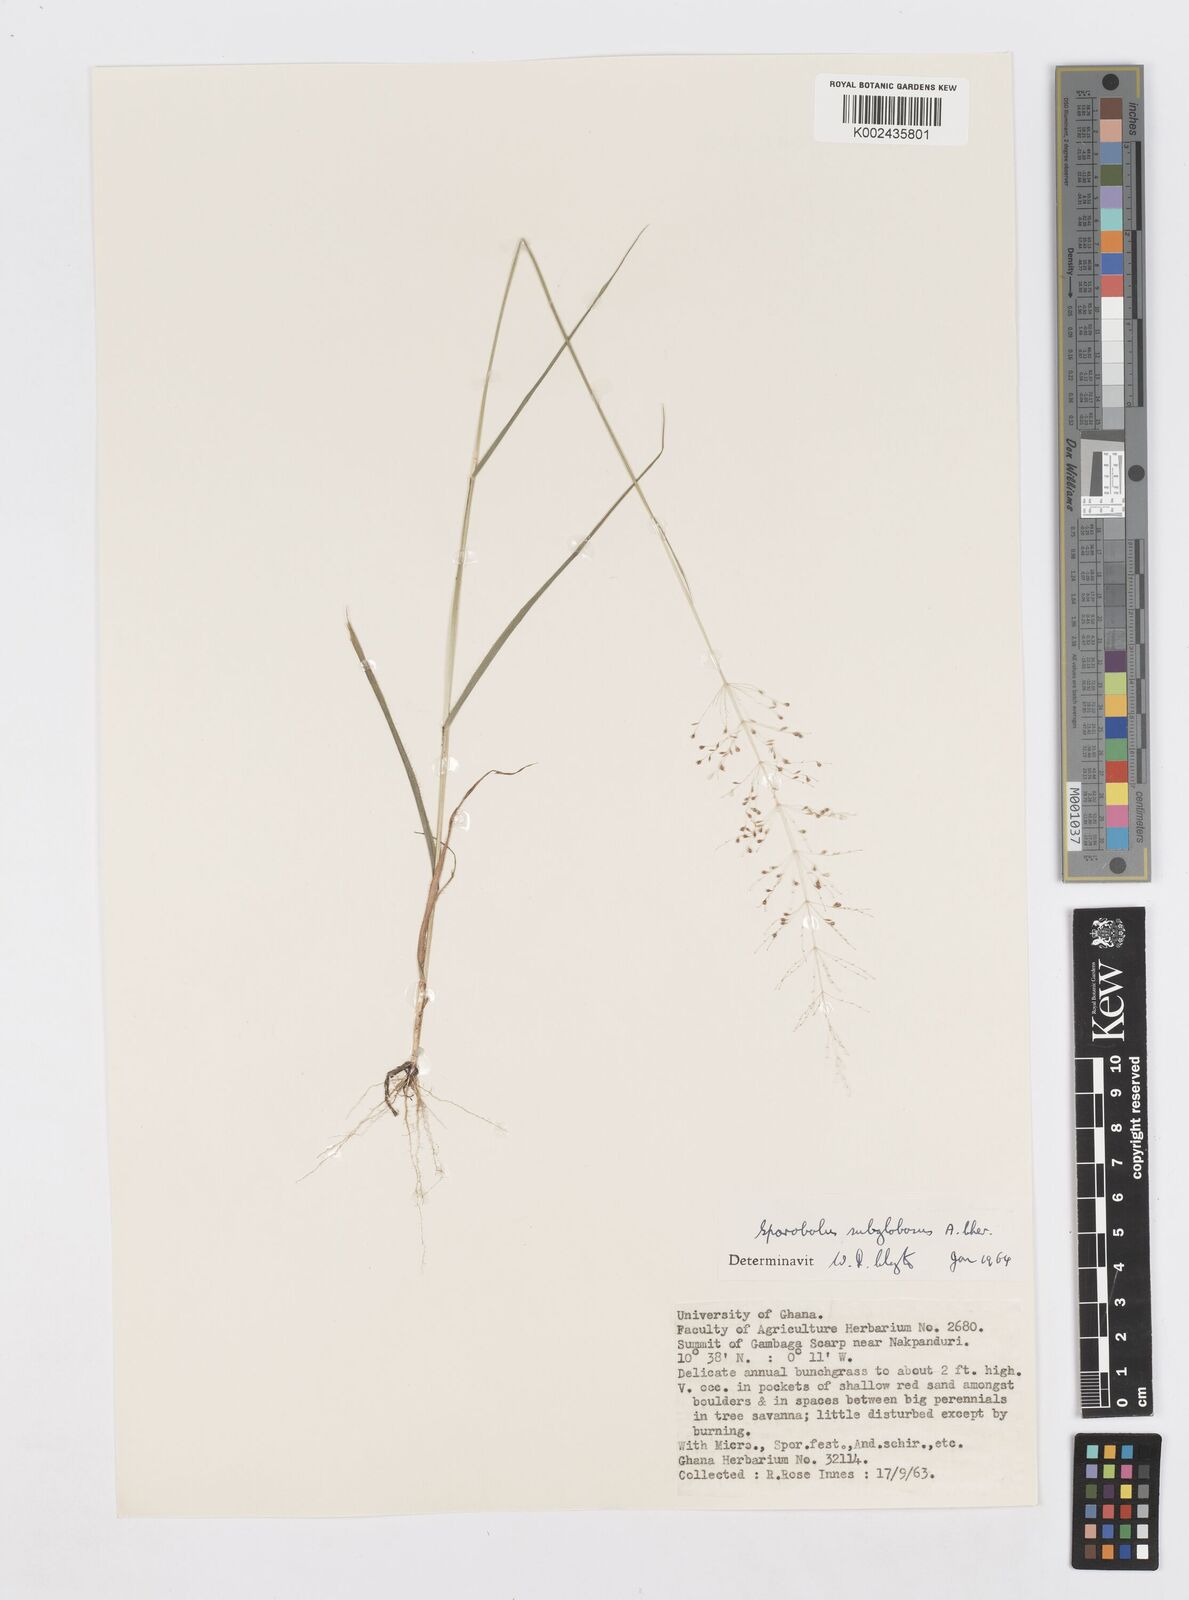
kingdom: Plantae
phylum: Tracheophyta
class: Liliopsida
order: Poales
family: Poaceae
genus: Sporobolus
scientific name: Sporobolus subglobosus
